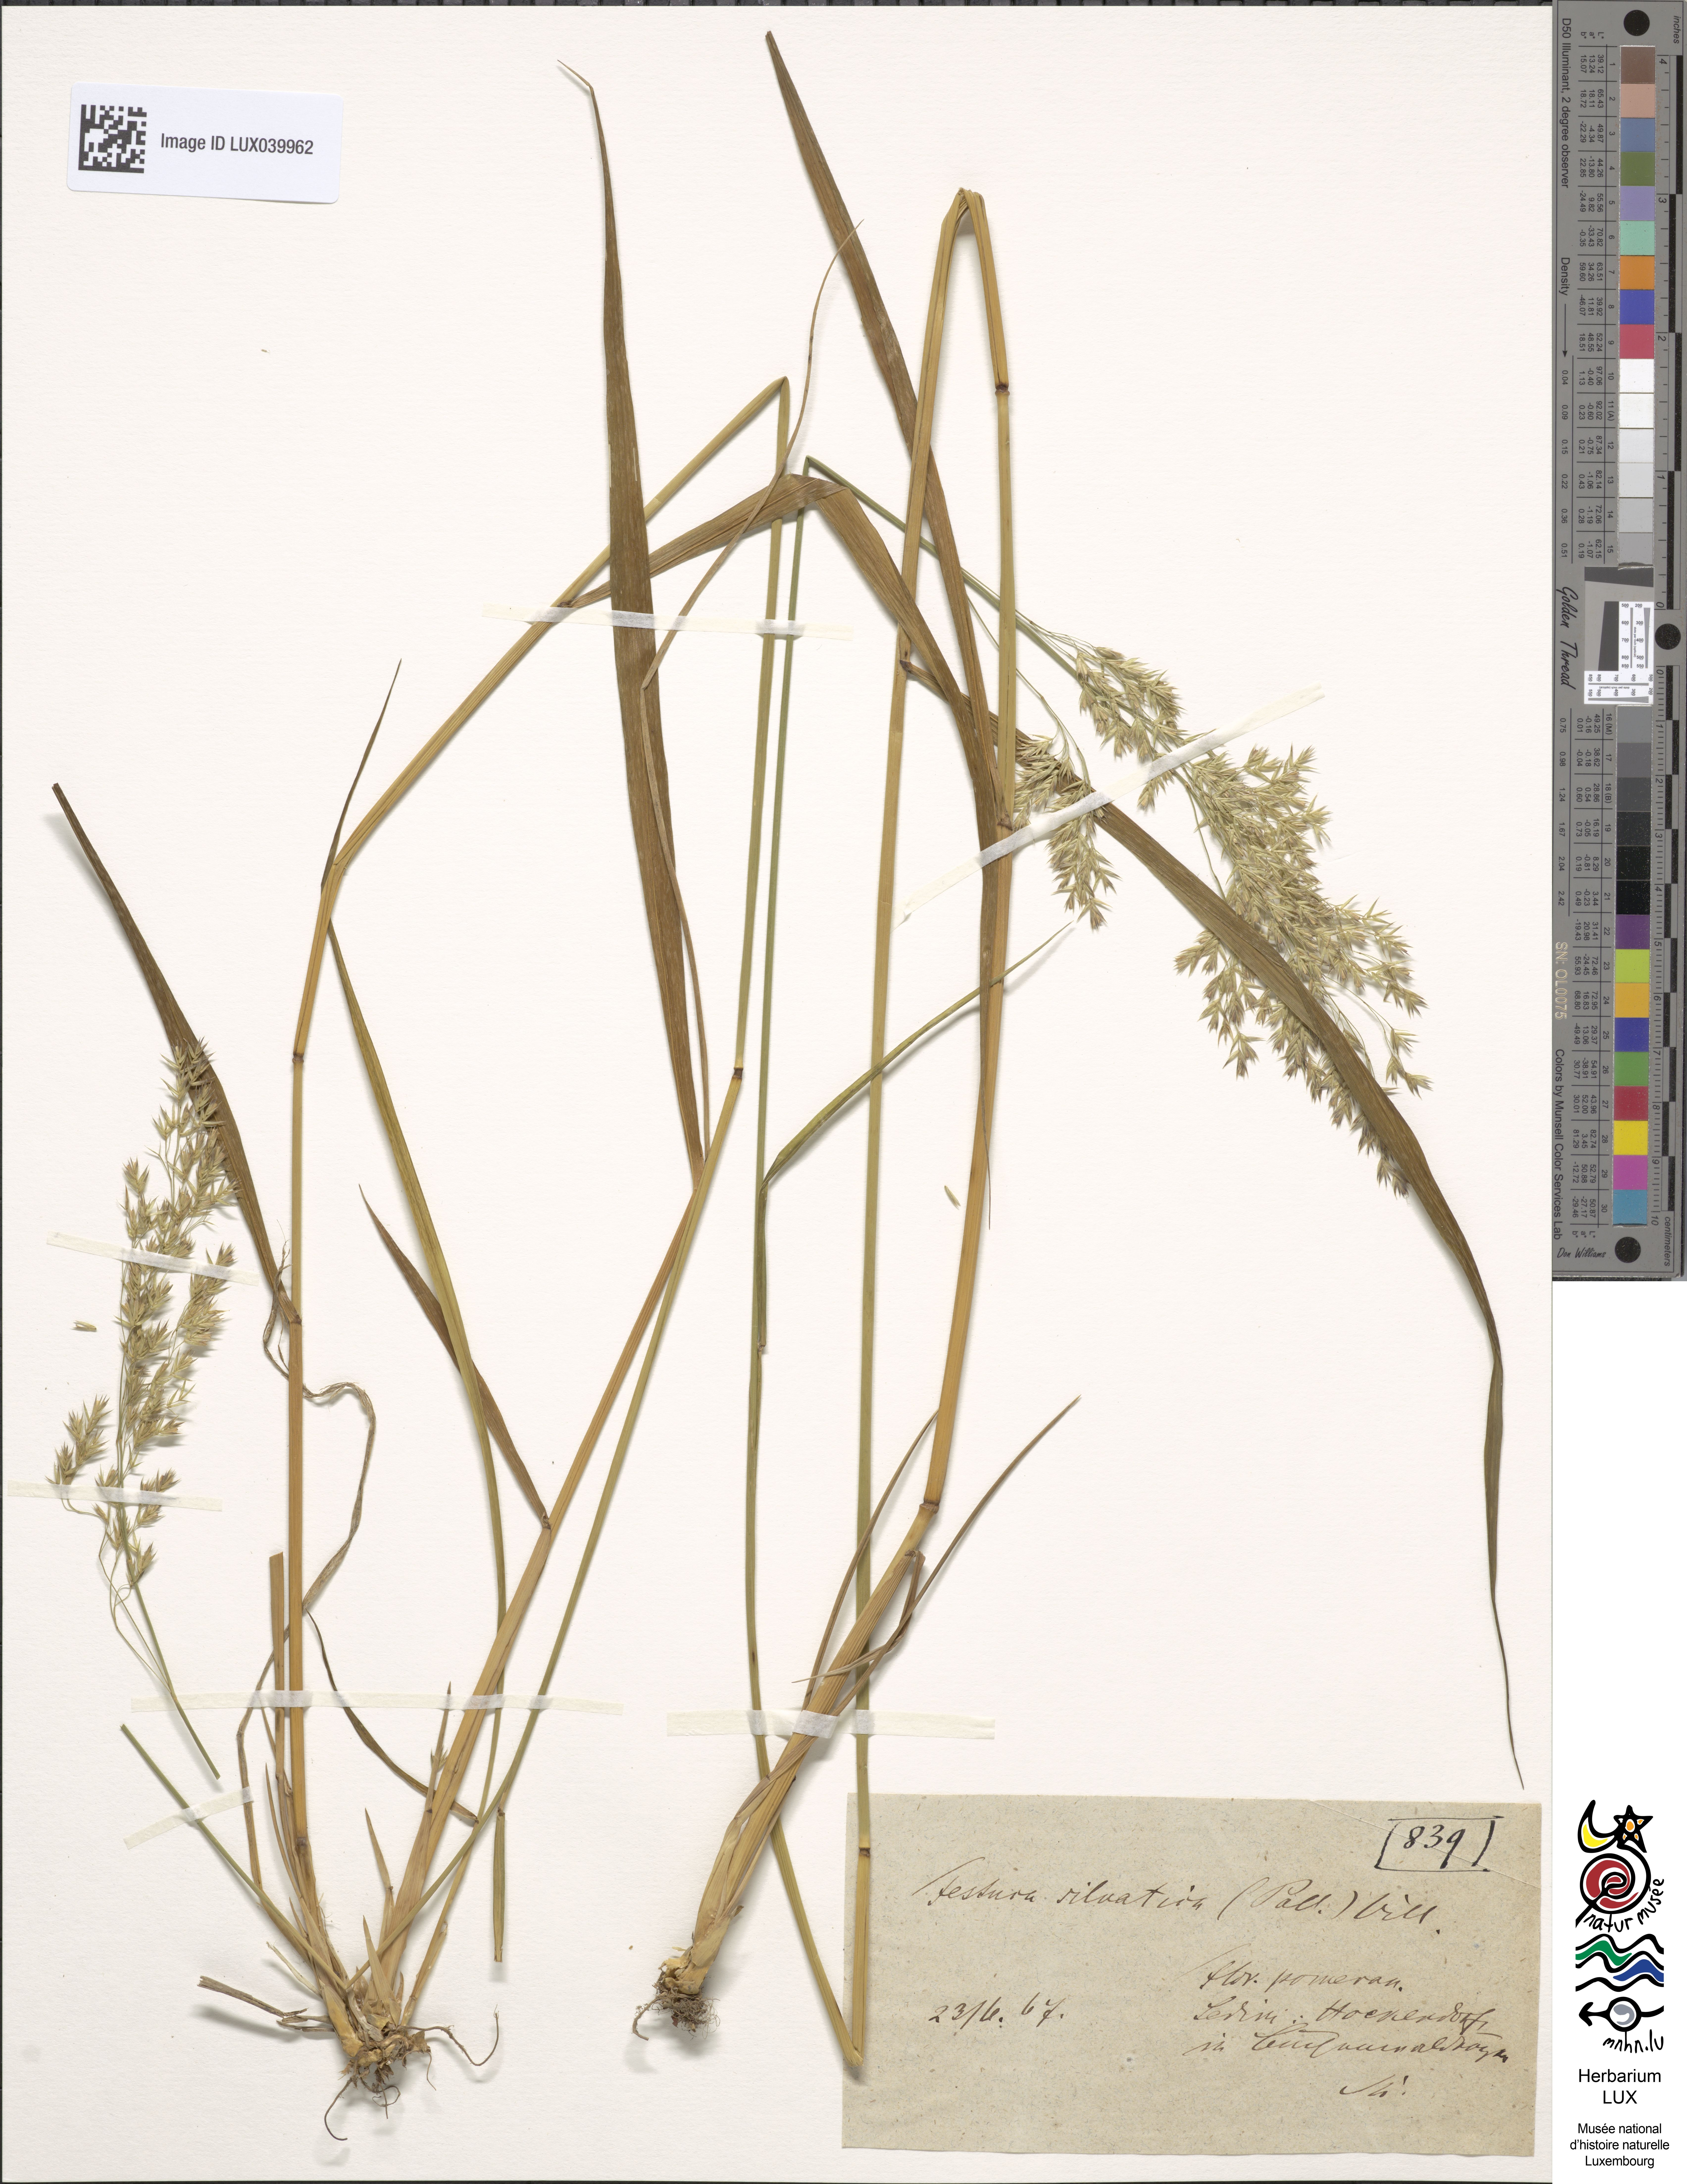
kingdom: Plantae
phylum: Tracheophyta
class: Liliopsida
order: Poales
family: Poaceae
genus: Festuca
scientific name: Festuca altissima
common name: Wood fescue
